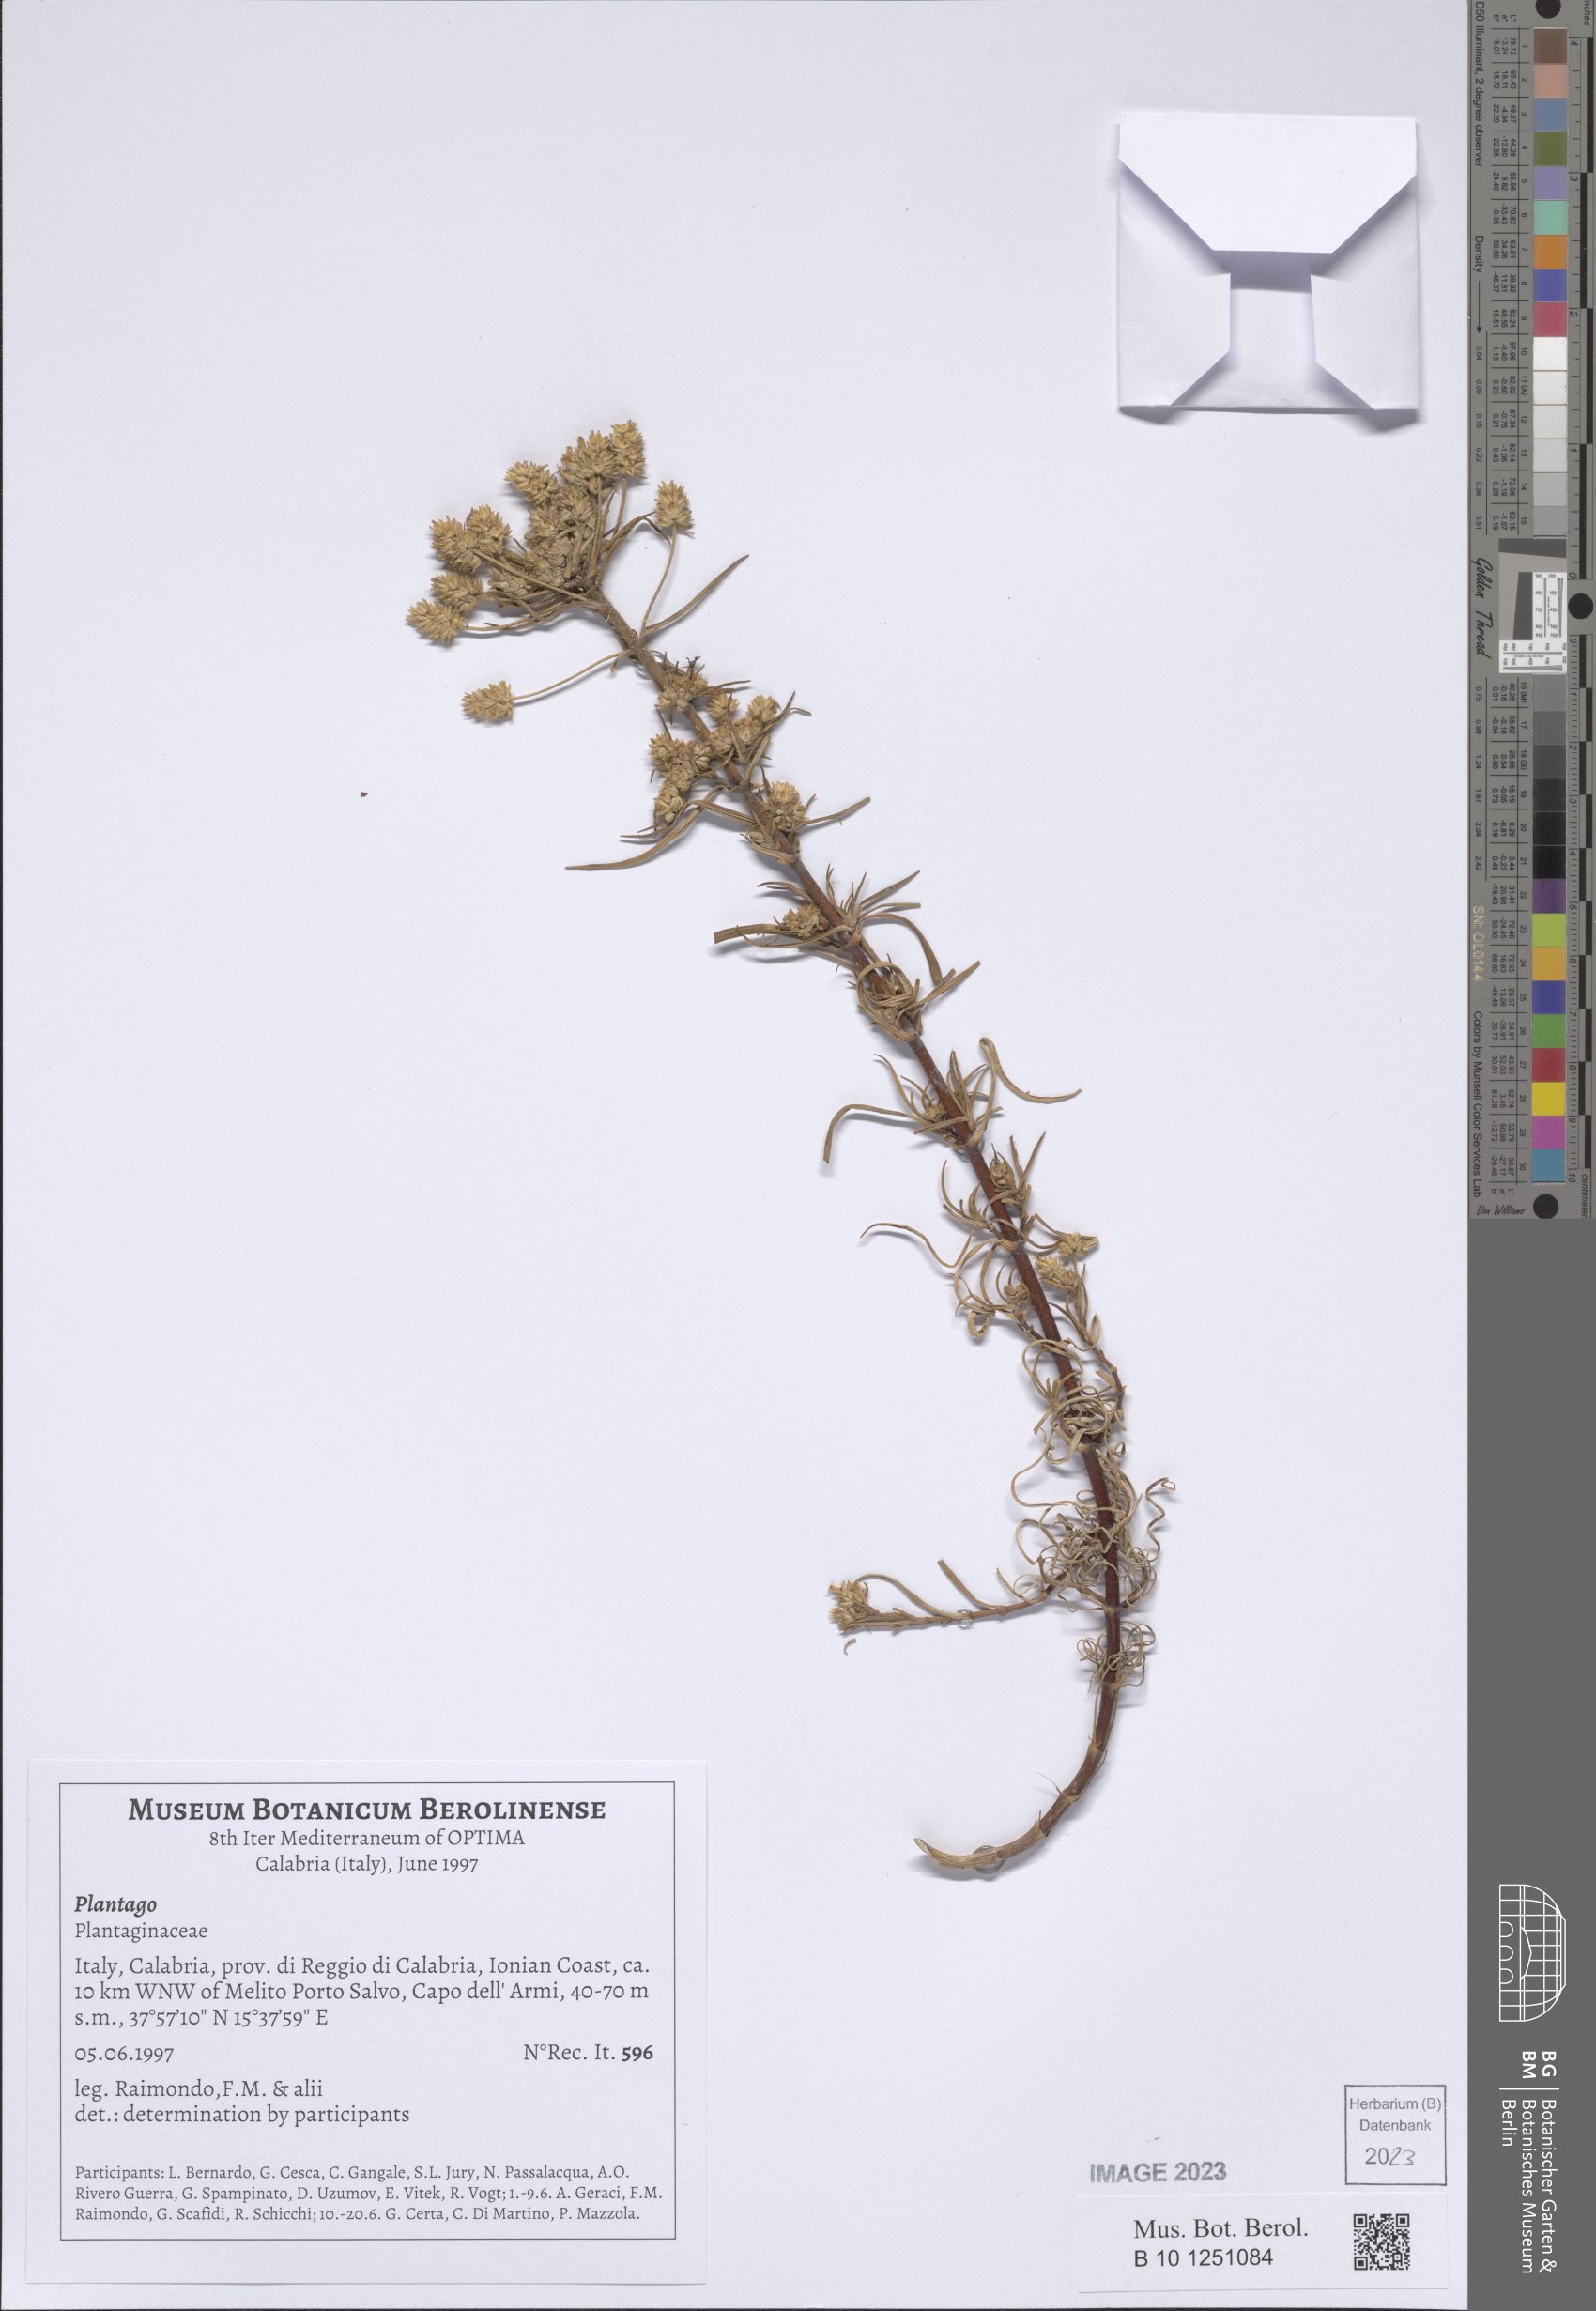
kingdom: Plantae
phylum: Tracheophyta
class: Magnoliopsida
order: Lamiales
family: Plantaginaceae
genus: Plantago
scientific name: Plantago
